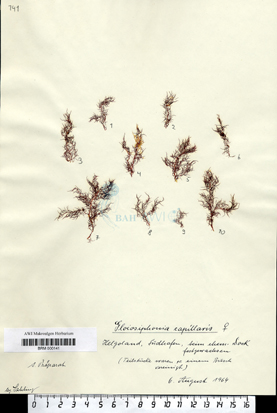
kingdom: Plantae
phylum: Rhodophyta
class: Florideophyceae
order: Gigartinales
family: Gloiosiphoniaceae
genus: Gloiosiphonia
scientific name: Gloiosiphonia capillaris
